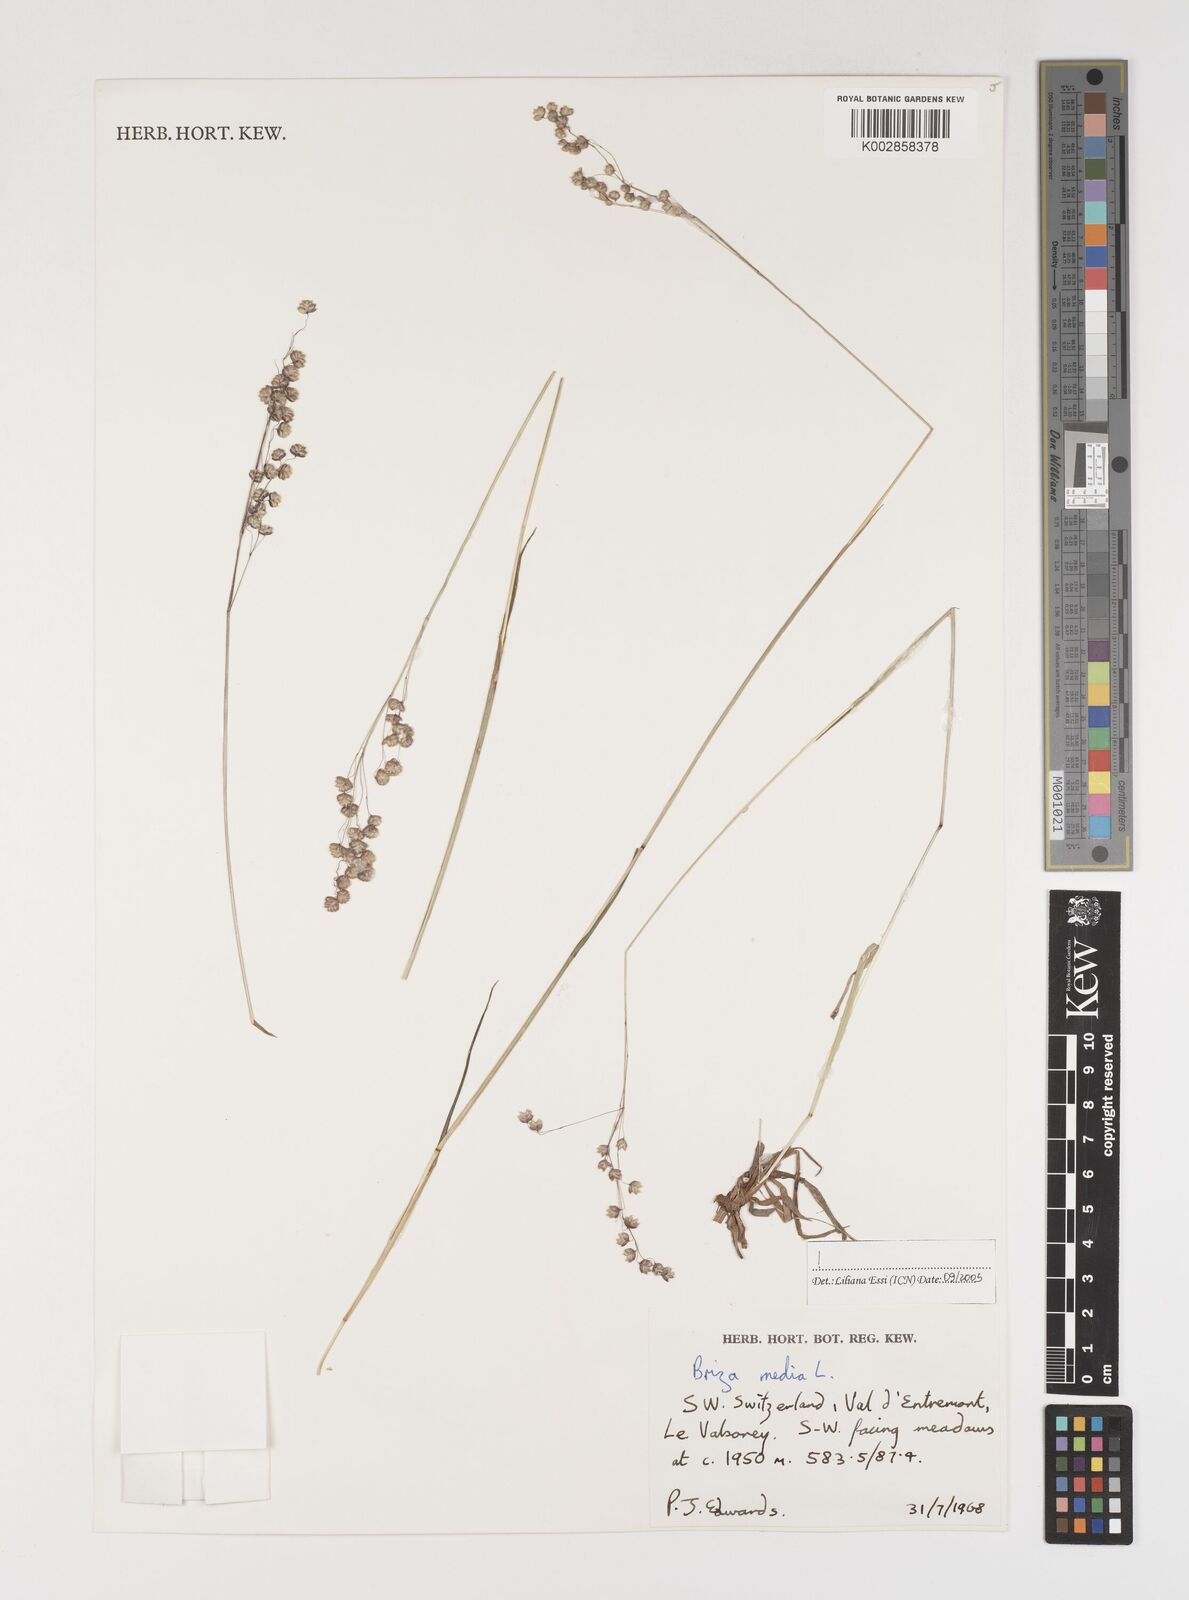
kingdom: Plantae
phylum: Tracheophyta
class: Liliopsida
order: Poales
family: Poaceae
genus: Briza
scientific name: Briza media
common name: Quaking grass
